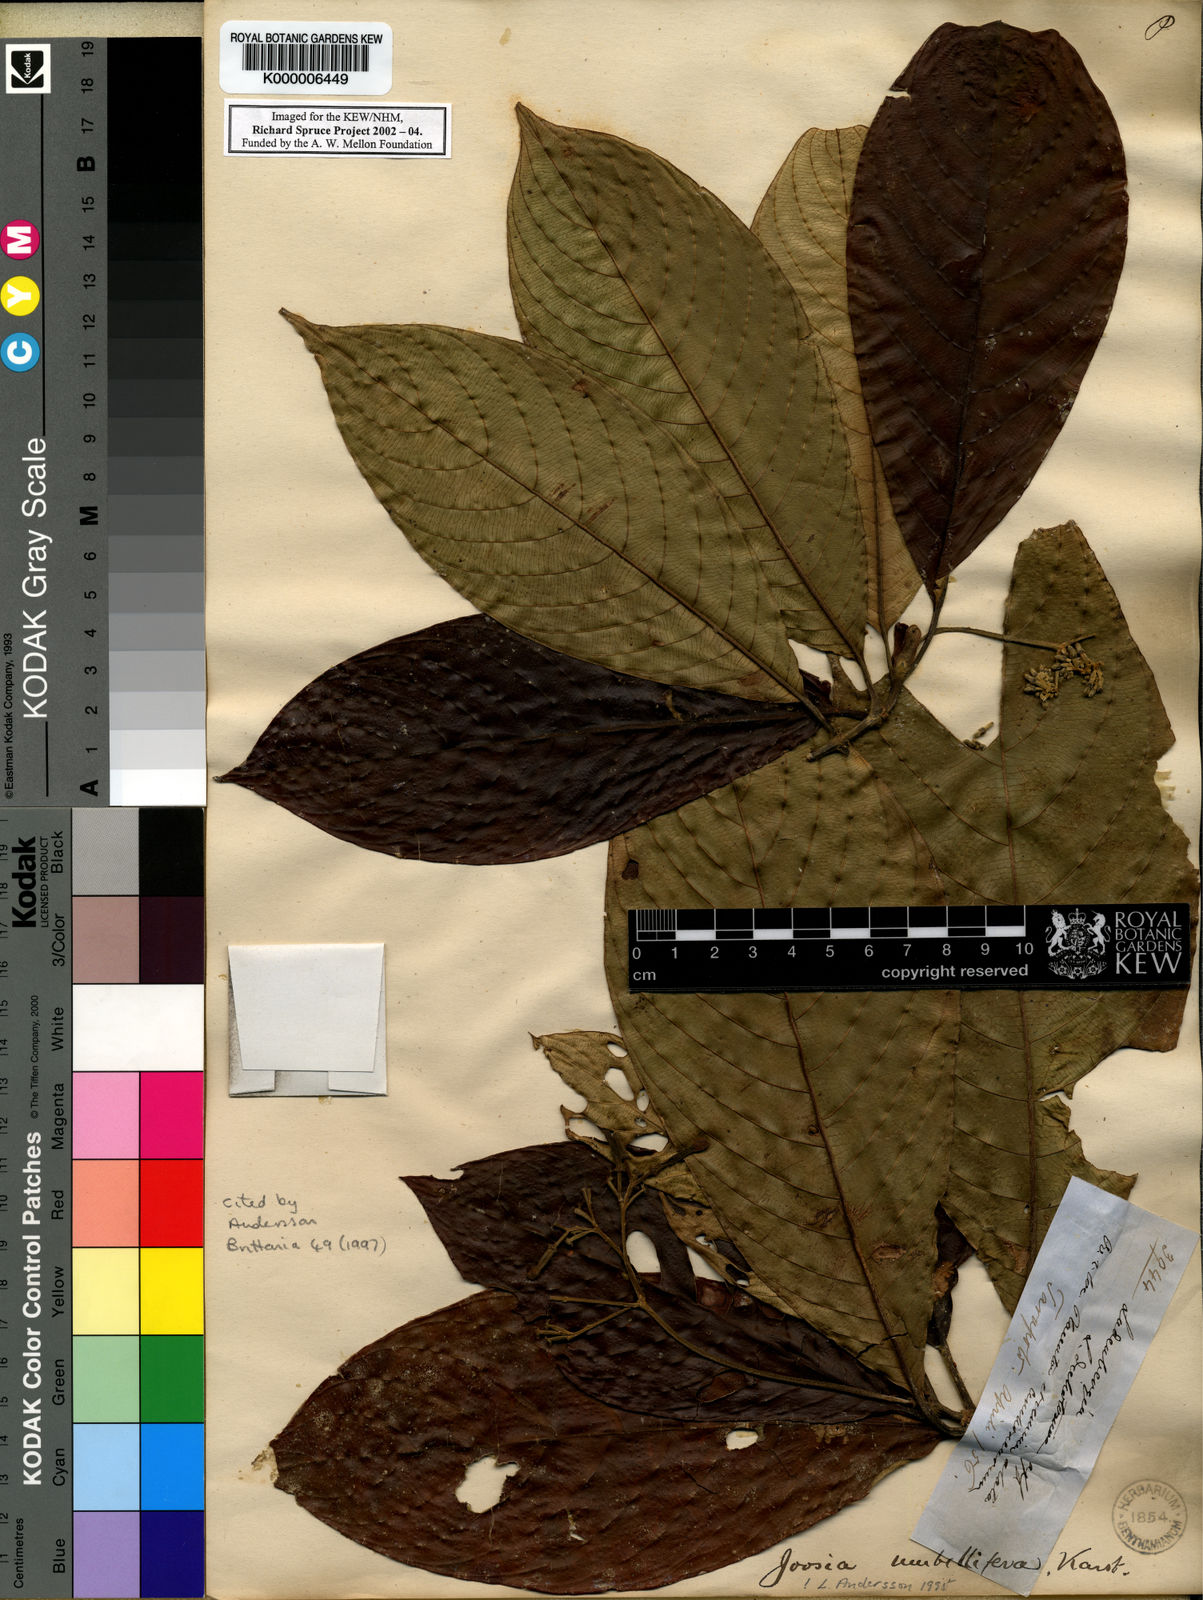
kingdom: Plantae
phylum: Tracheophyta
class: Magnoliopsida
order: Gentianales
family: Rubiaceae
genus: Joosia
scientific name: Joosia umbellifera
